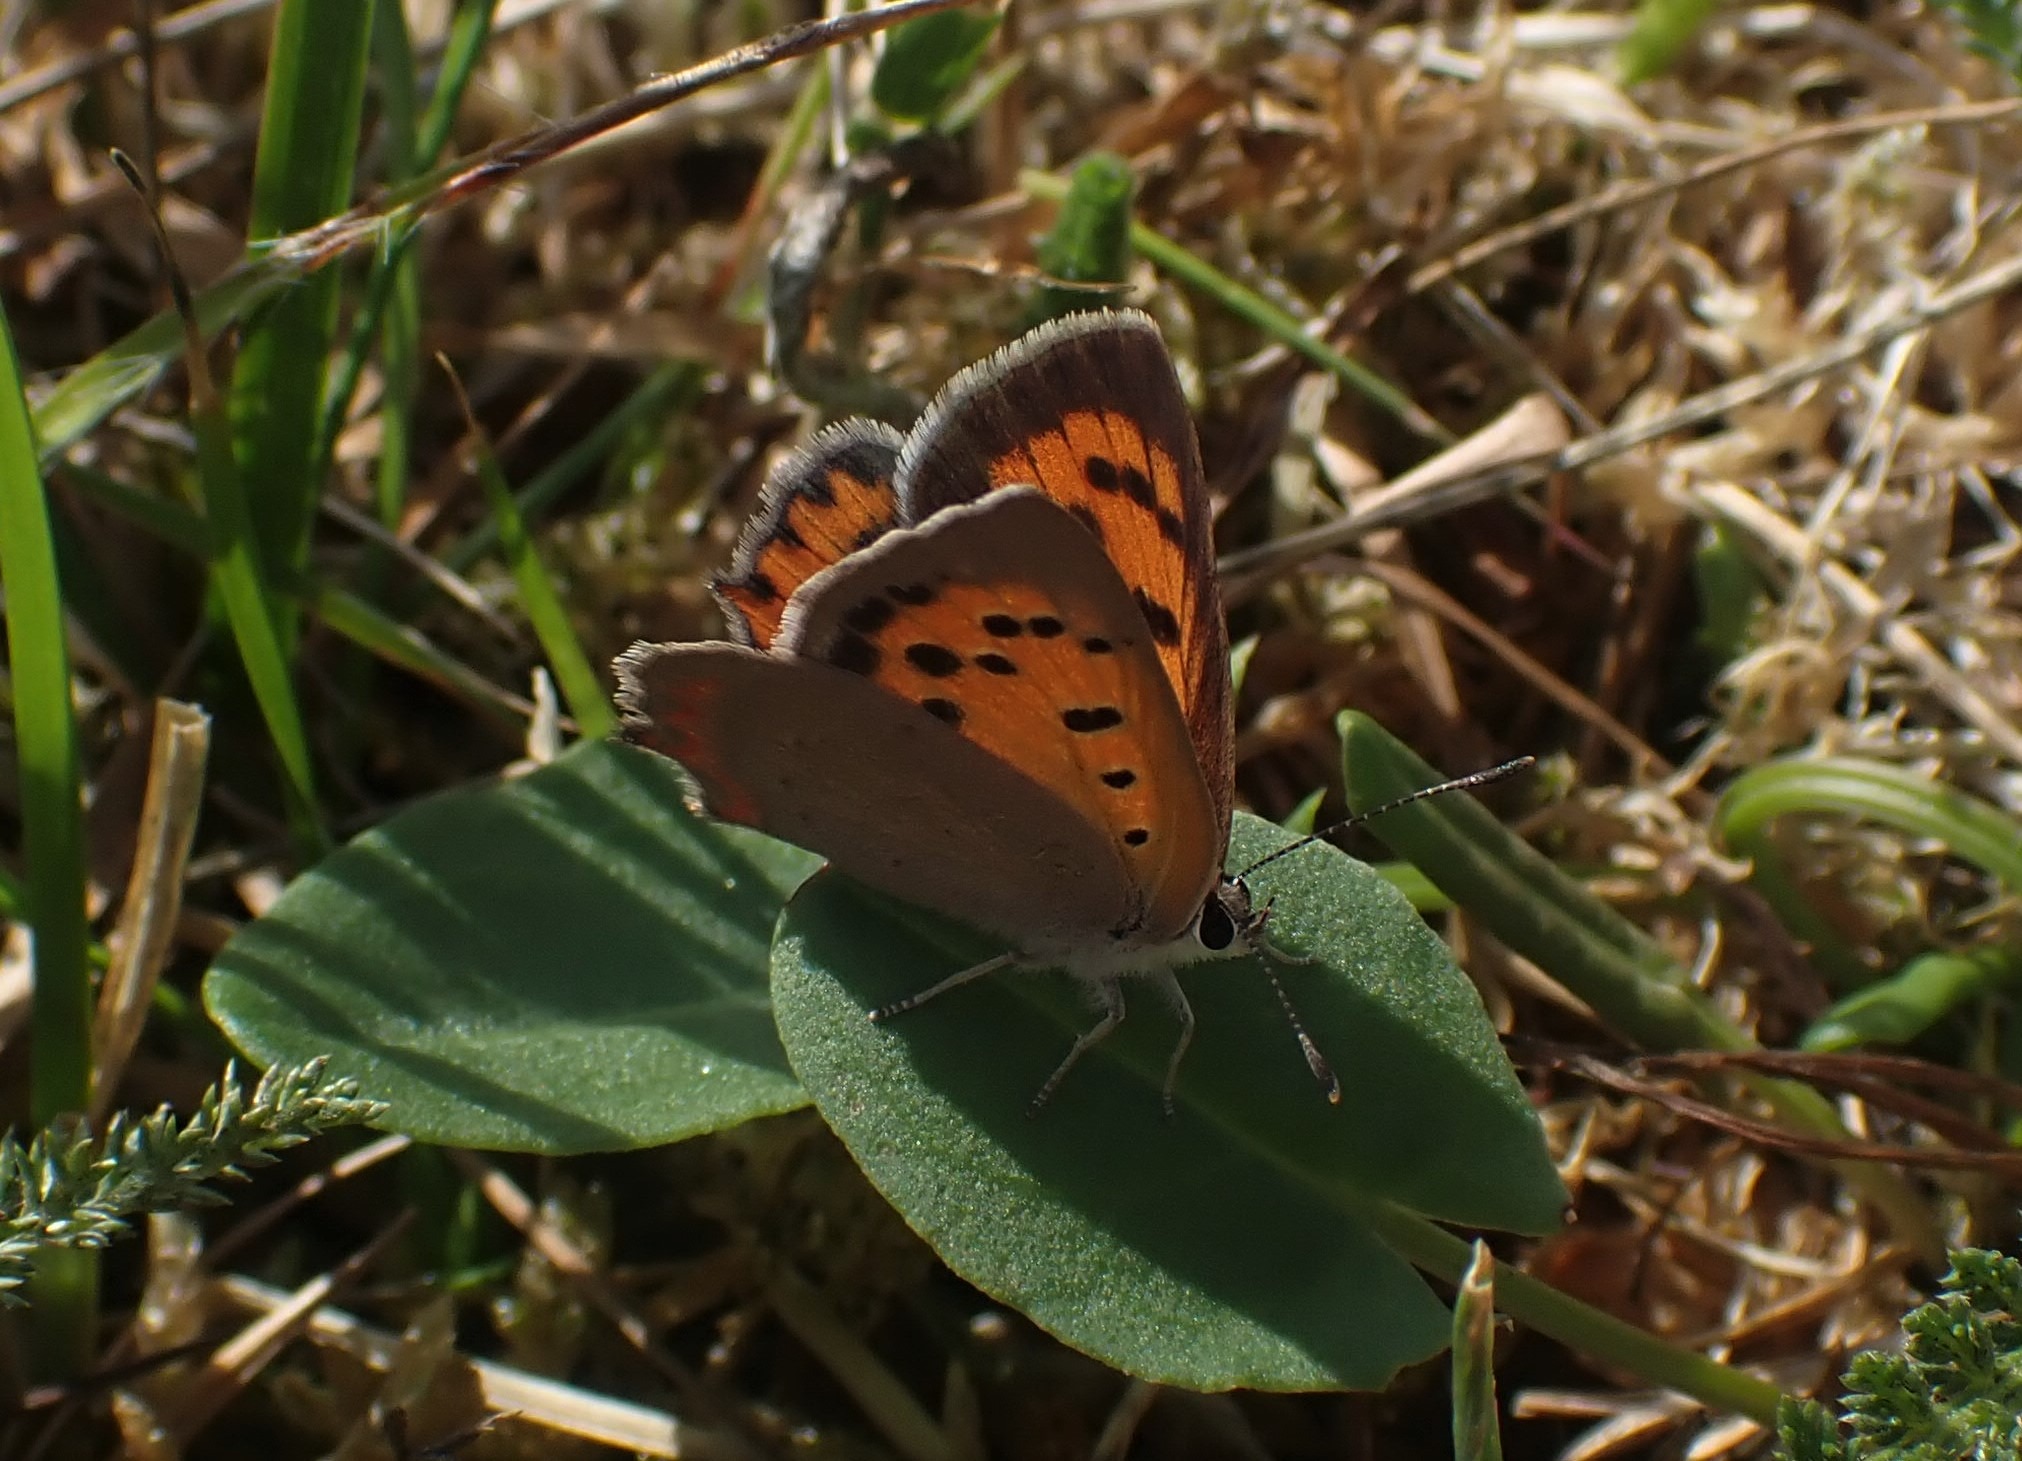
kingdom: Animalia
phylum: Arthropoda
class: Insecta
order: Lepidoptera
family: Lycaenidae
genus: Lycaena
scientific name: Lycaena phlaeas
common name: Lille ildfugl
